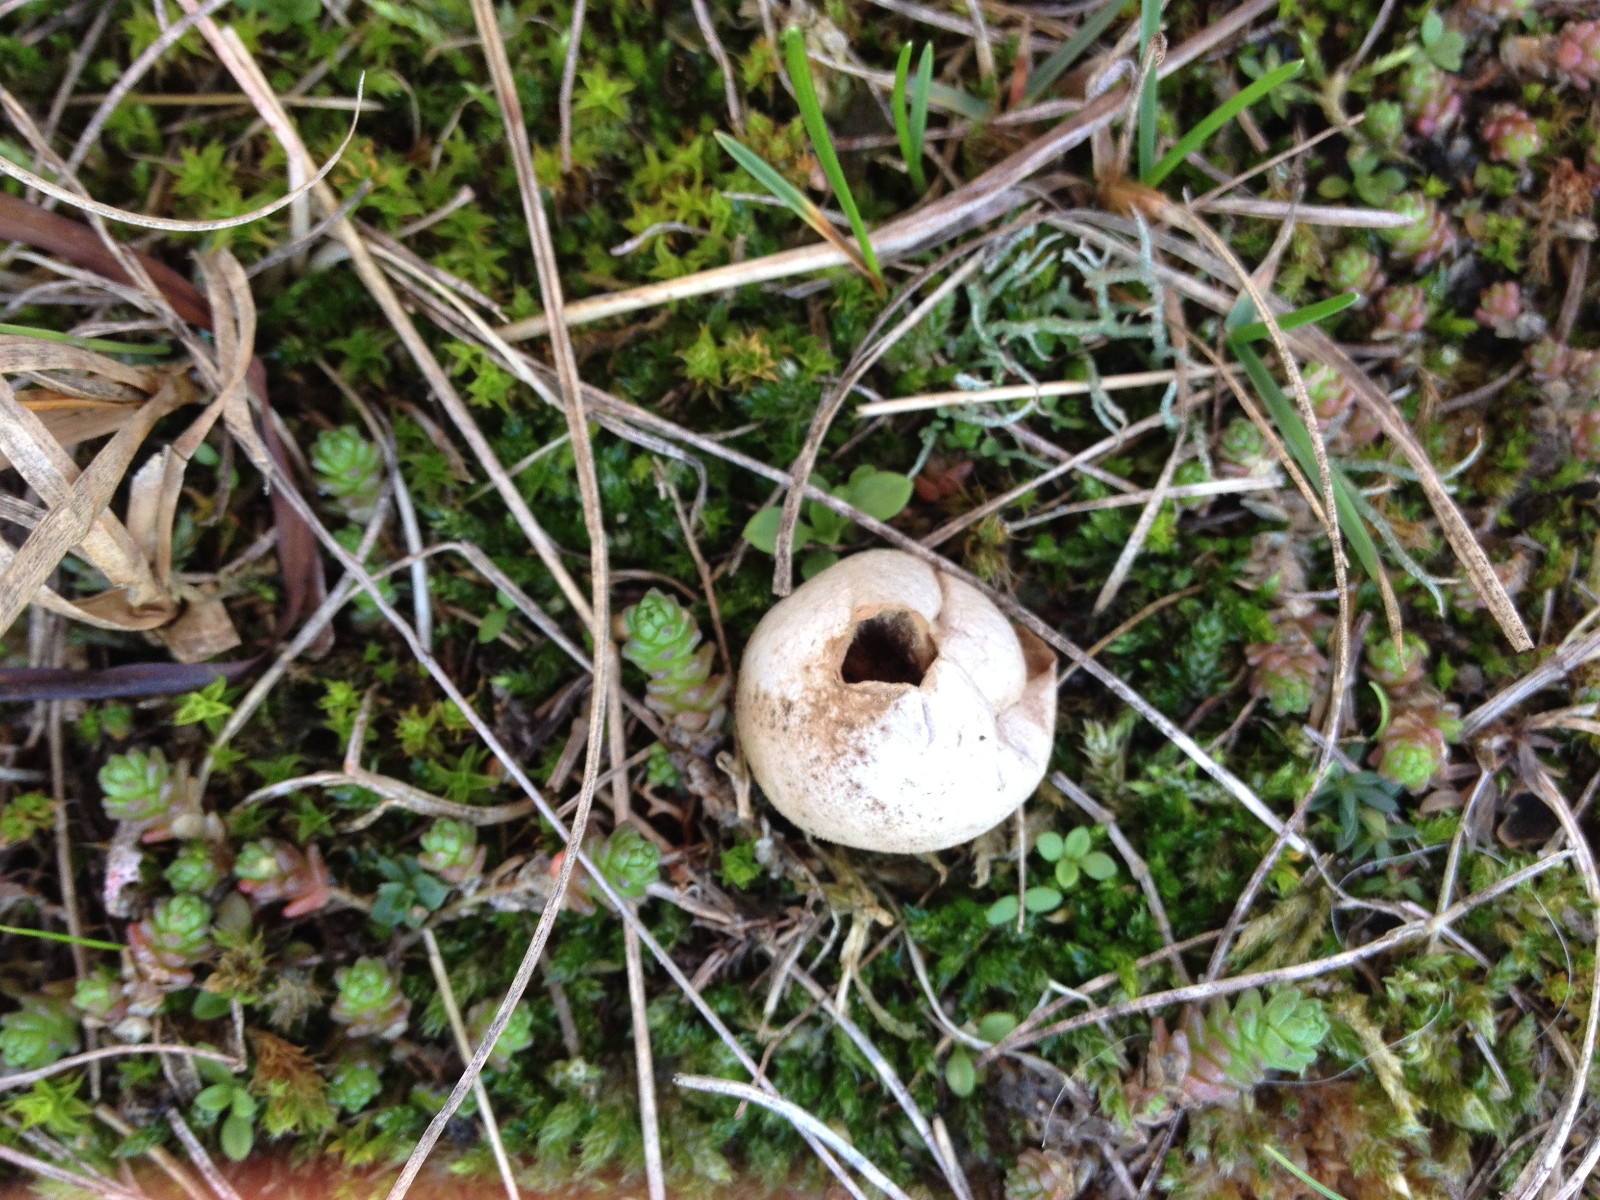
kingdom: Fungi
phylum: Basidiomycota
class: Agaricomycetes
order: Agaricales
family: Lycoperdaceae
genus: Lycoperdon
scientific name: Lycoperdon lividum
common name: mark-støvbold
